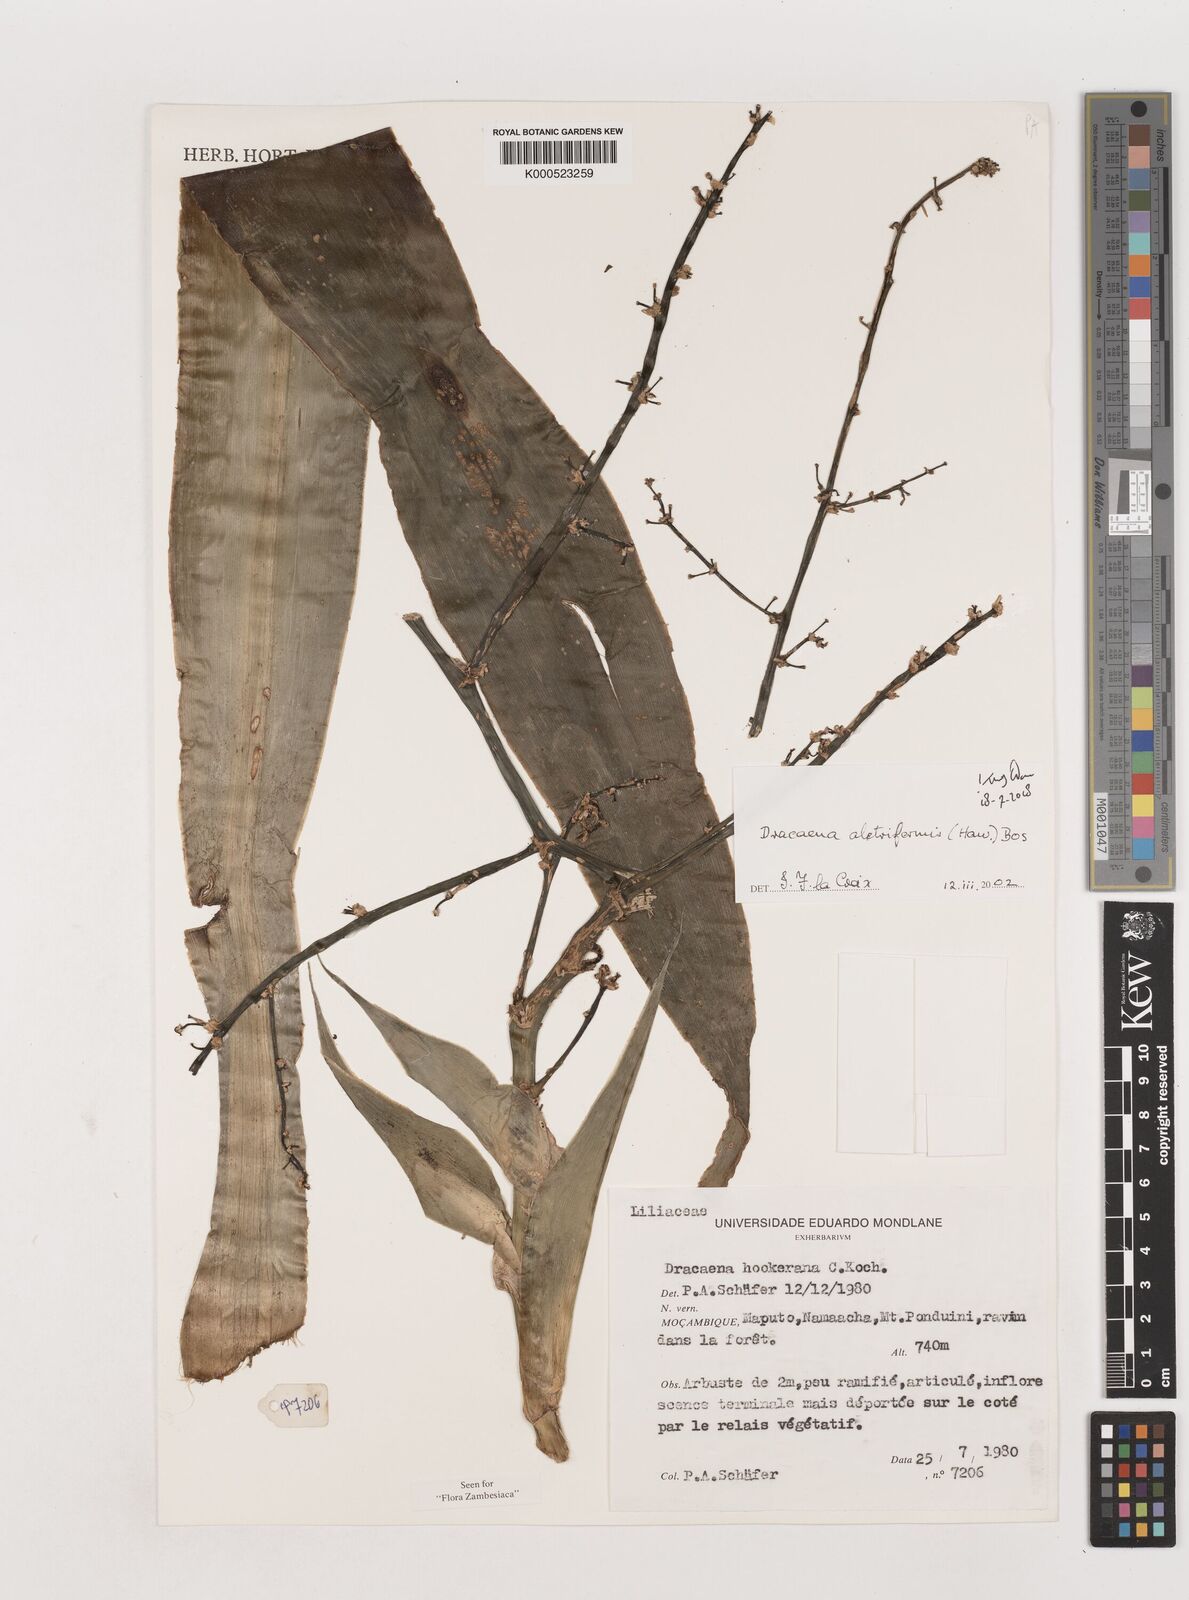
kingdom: Plantae
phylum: Tracheophyta
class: Liliopsida
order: Asparagales
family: Asparagaceae
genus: Dracaena
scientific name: Dracaena aletriformis
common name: Large-leaved dragon tree
